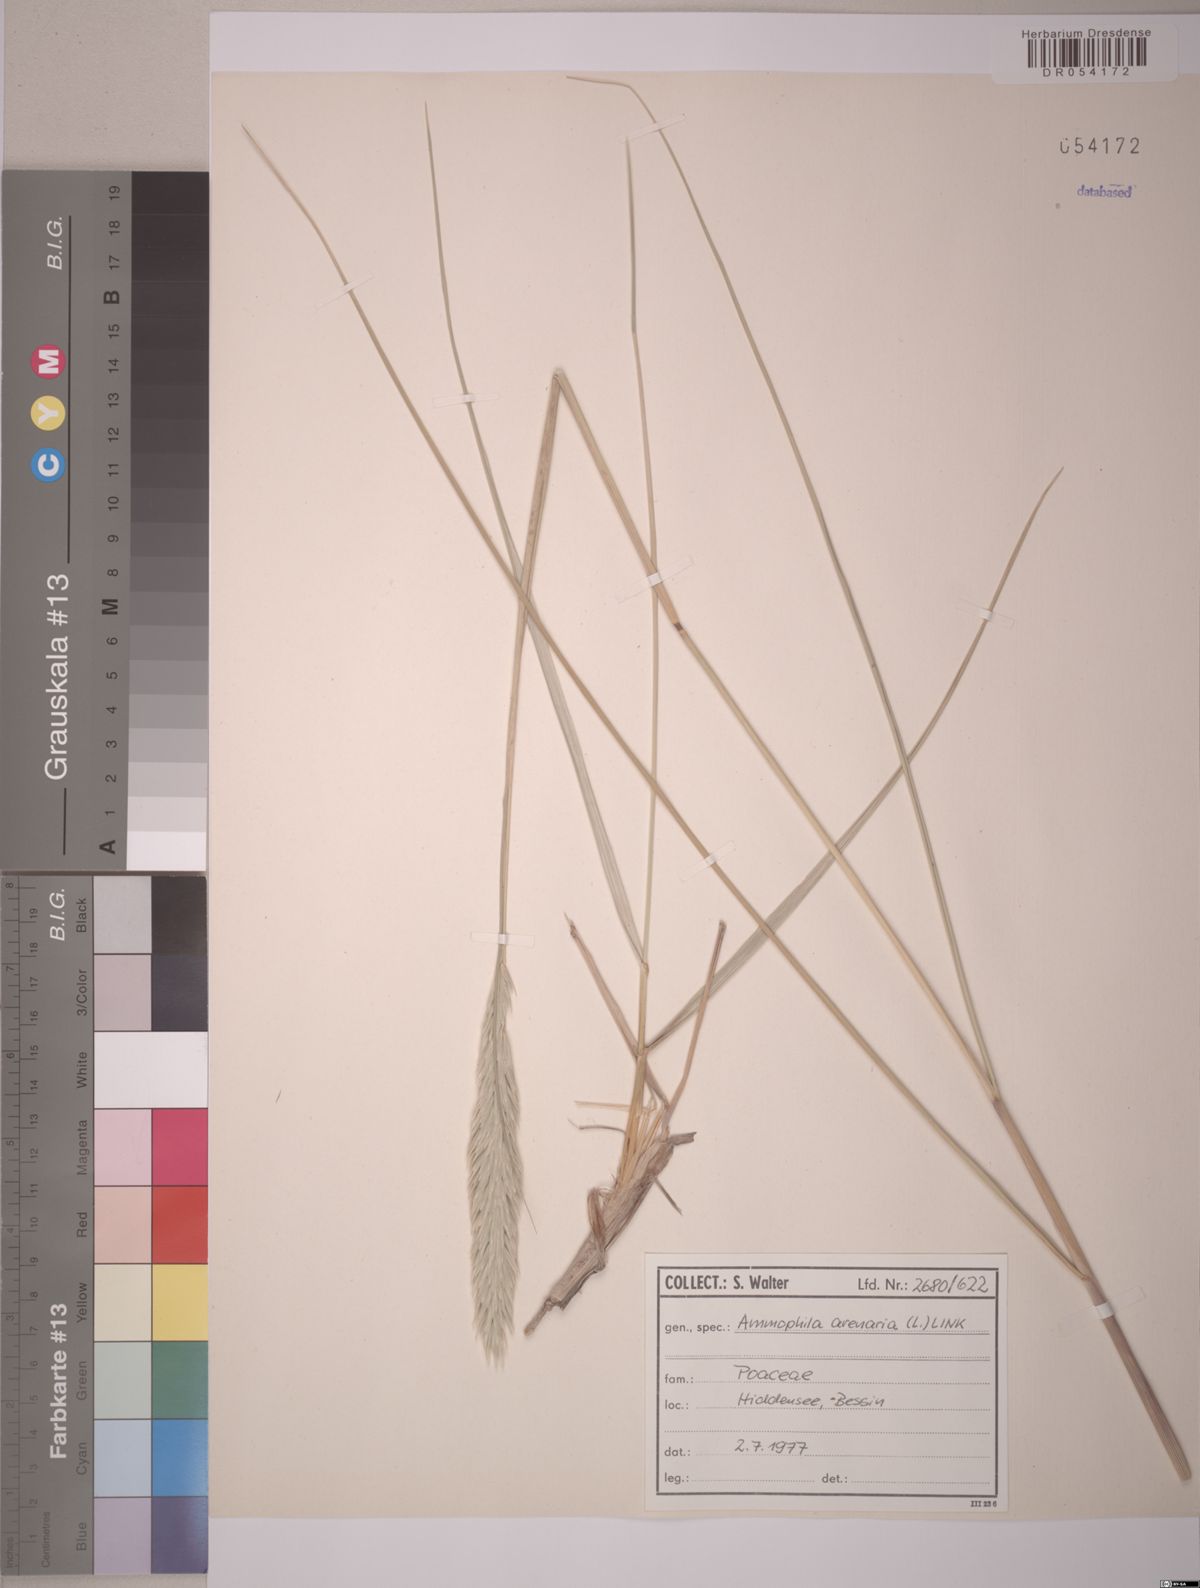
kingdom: Plantae
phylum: Tracheophyta
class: Liliopsida
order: Poales
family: Poaceae
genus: Calamagrostis
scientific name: Calamagrostis arenaria
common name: European beachgrass
